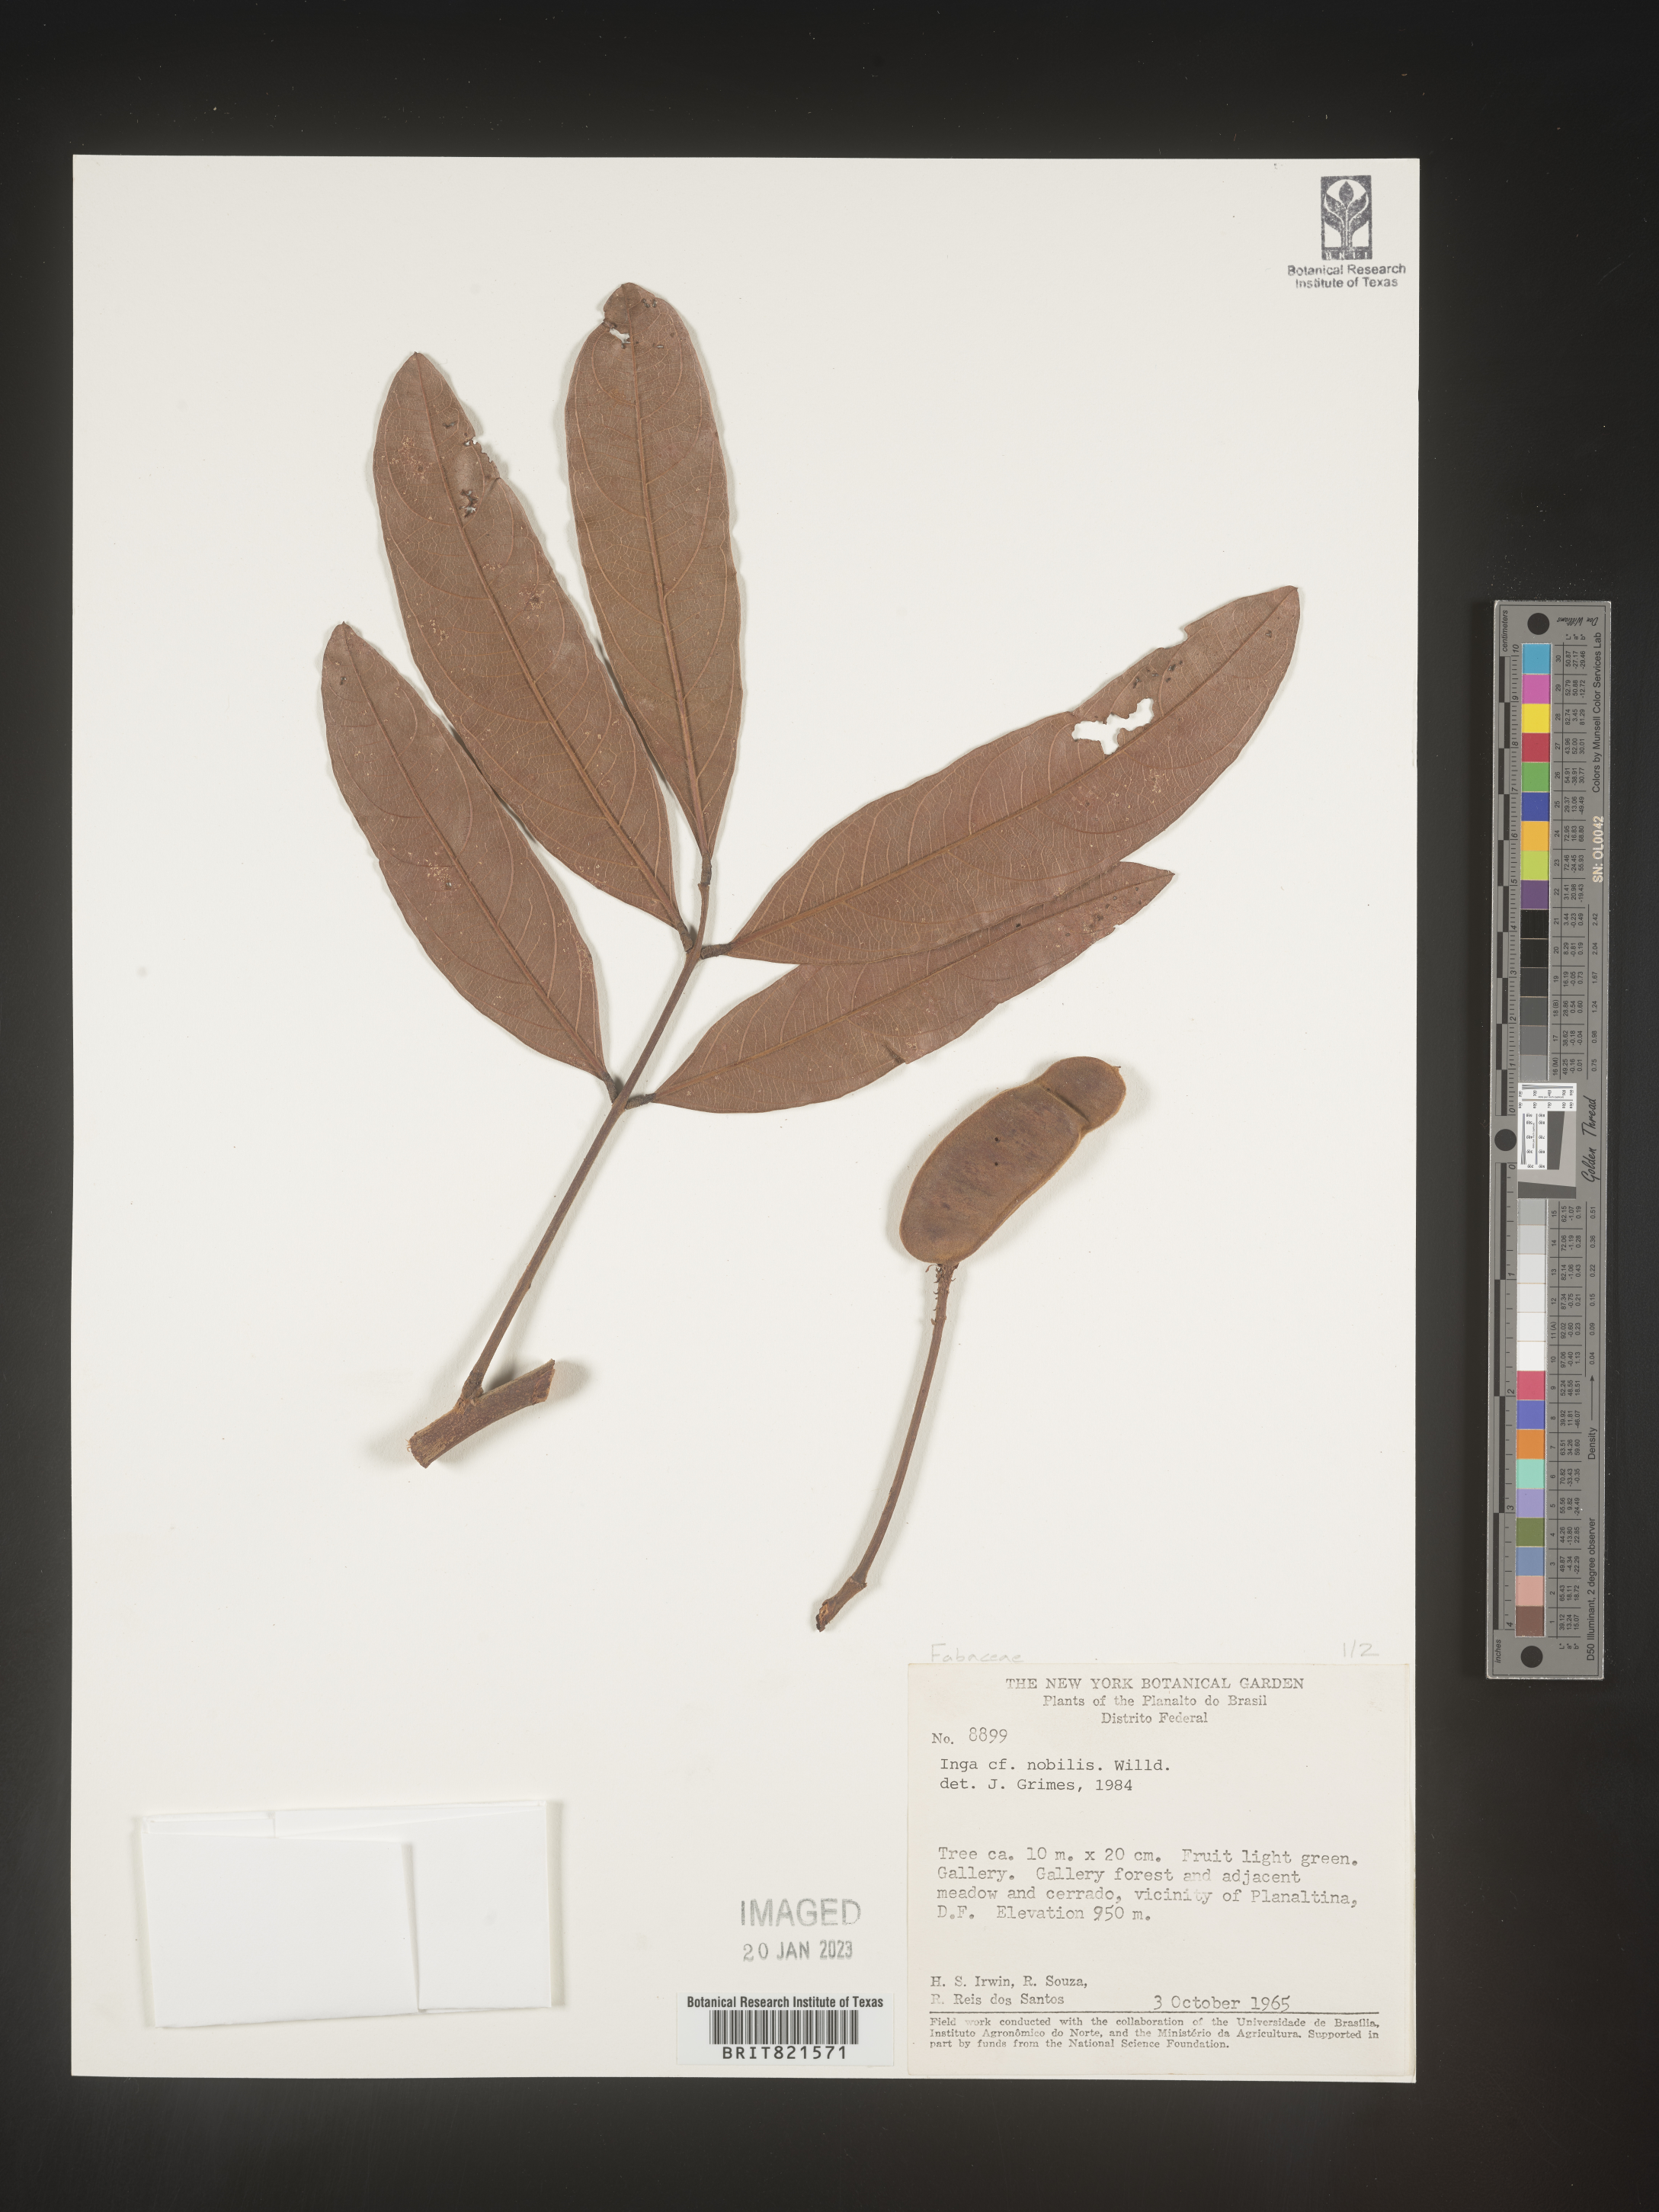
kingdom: Plantae
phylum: Tracheophyta
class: Magnoliopsida
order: Fabales
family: Fabaceae
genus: Inga
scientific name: Inga
